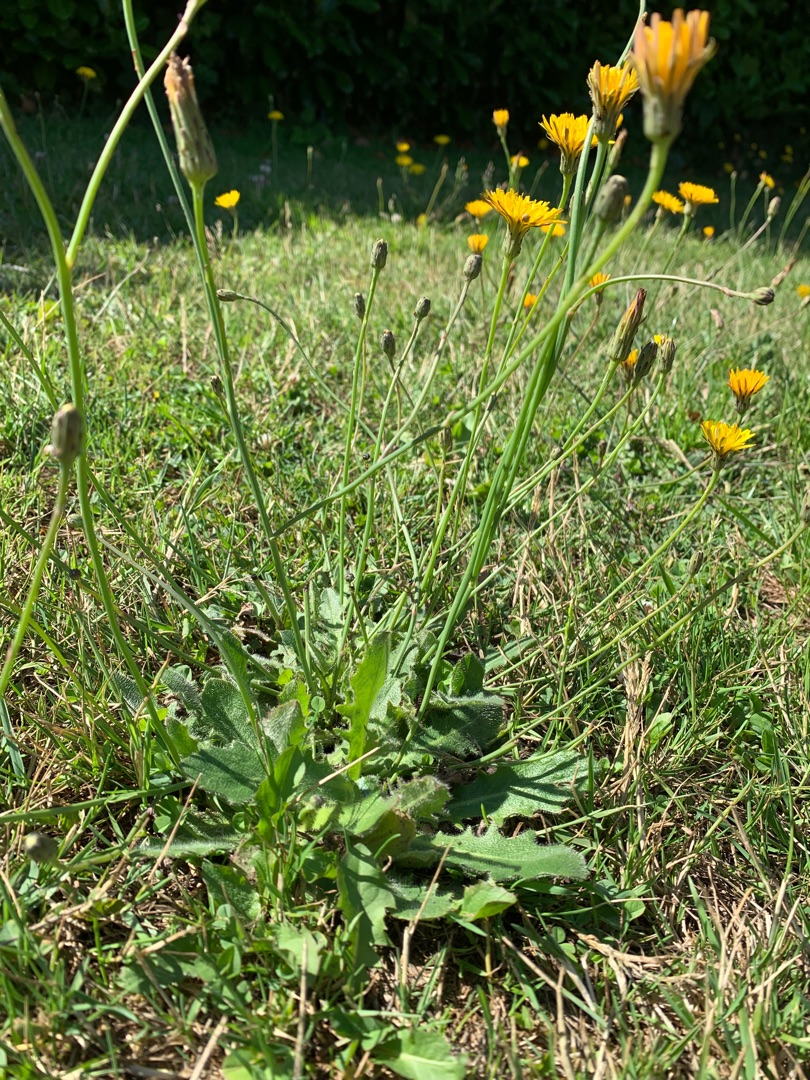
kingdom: Plantae
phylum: Tracheophyta
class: Magnoliopsida
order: Asterales
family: Asteraceae
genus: Hypochaeris
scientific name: Hypochaeris radicata
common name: Almindelig kongepen
